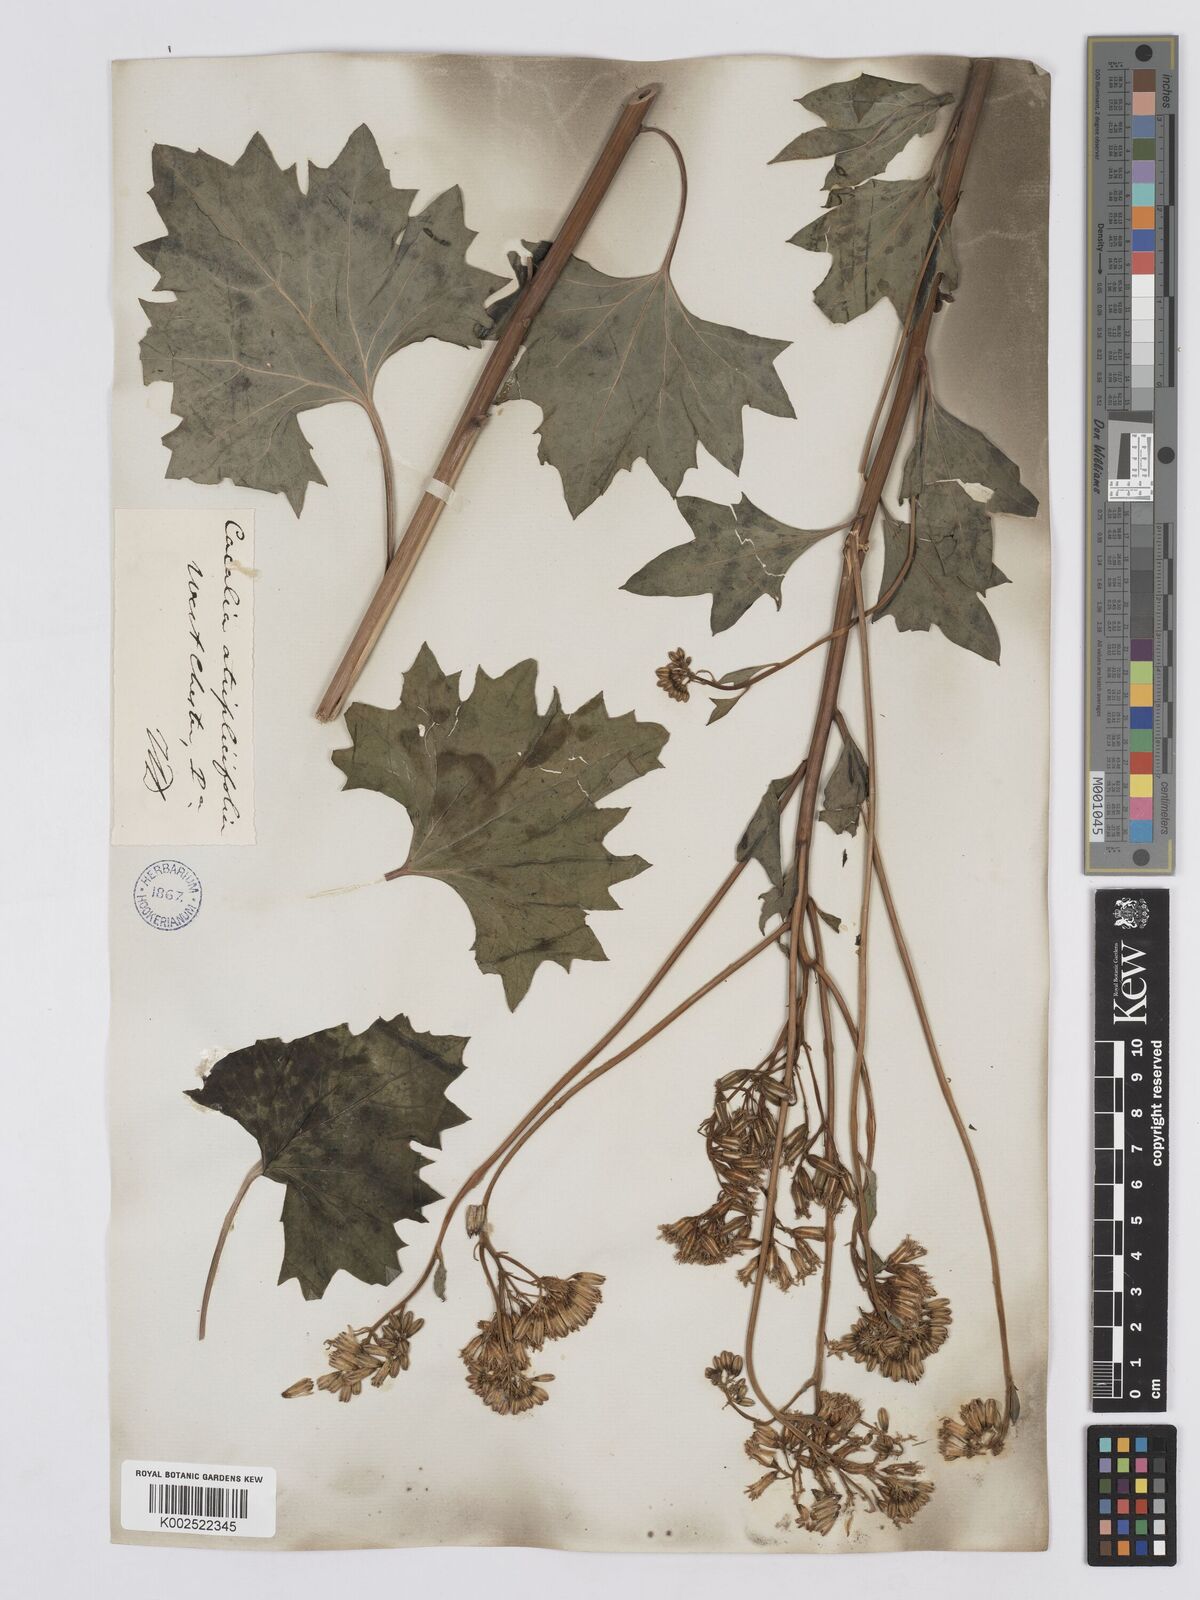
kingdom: Plantae
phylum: Tracheophyta
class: Magnoliopsida
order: Asterales
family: Asteraceae
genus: Arnoglossum
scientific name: Arnoglossum atriplicifolium
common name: Pale indian-plantain
